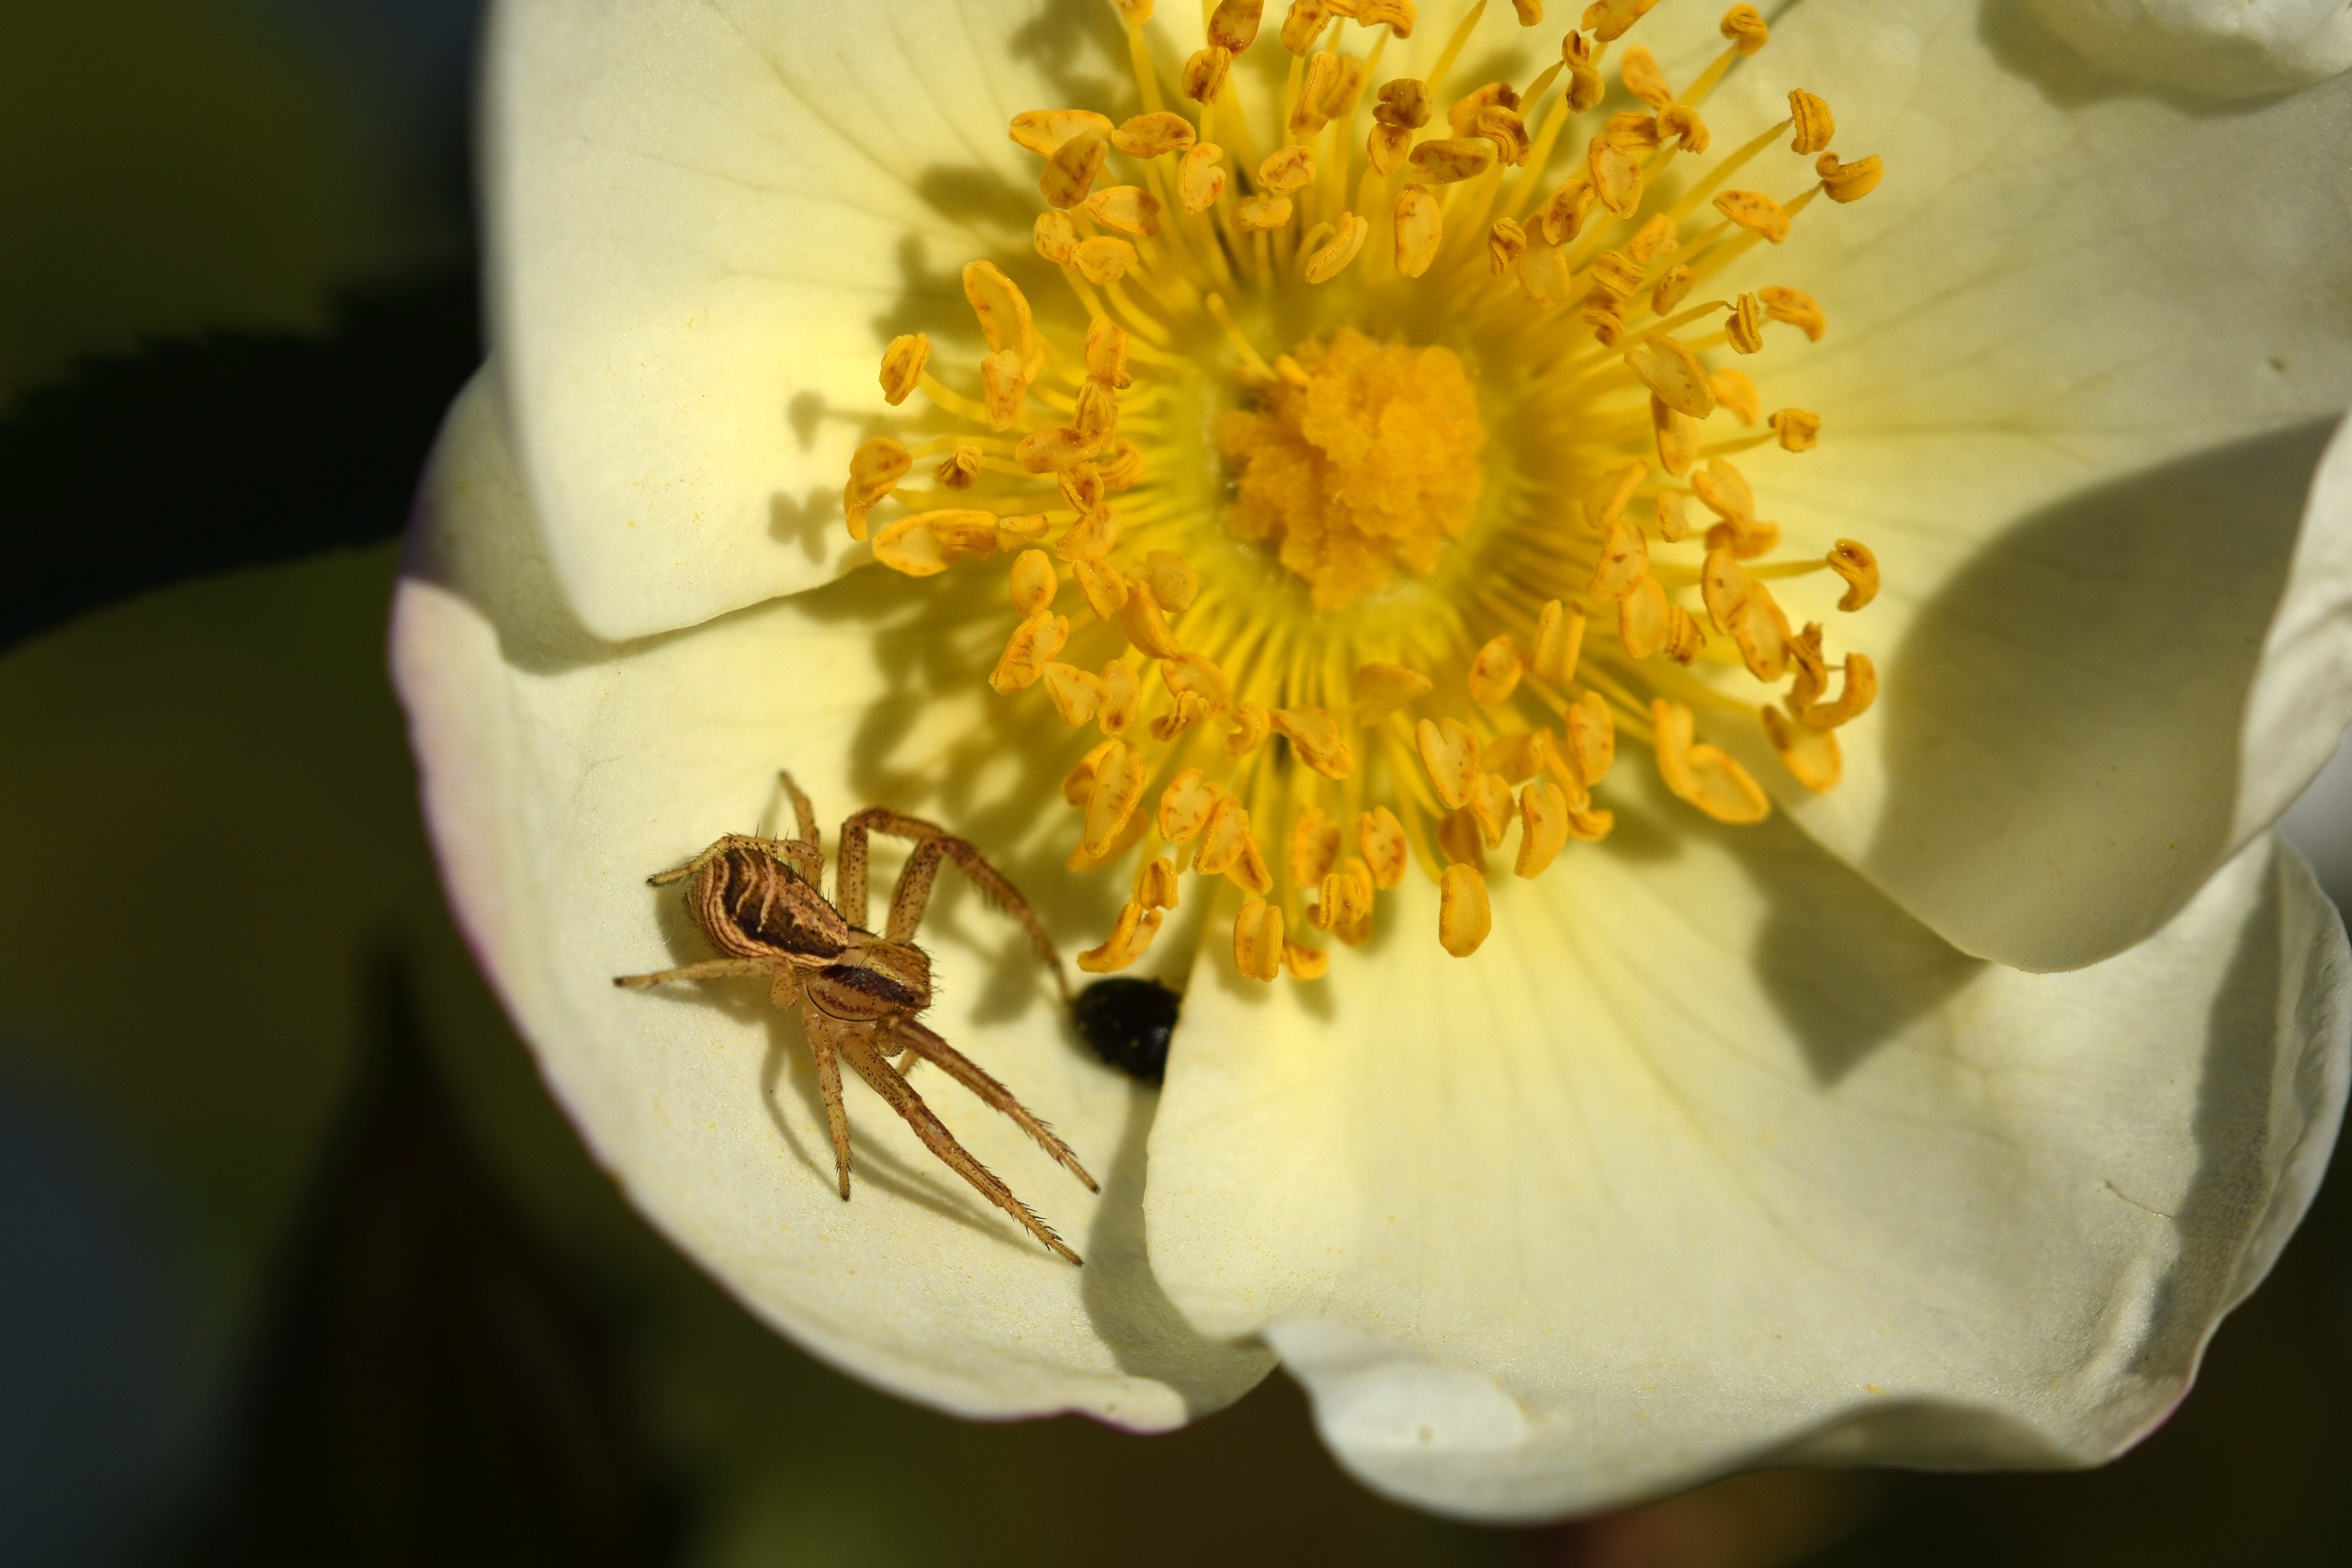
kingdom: Animalia
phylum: Arthropoda
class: Arachnida
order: Araneae
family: Thomisidae
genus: Xysticus
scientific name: Xysticus ulmi
